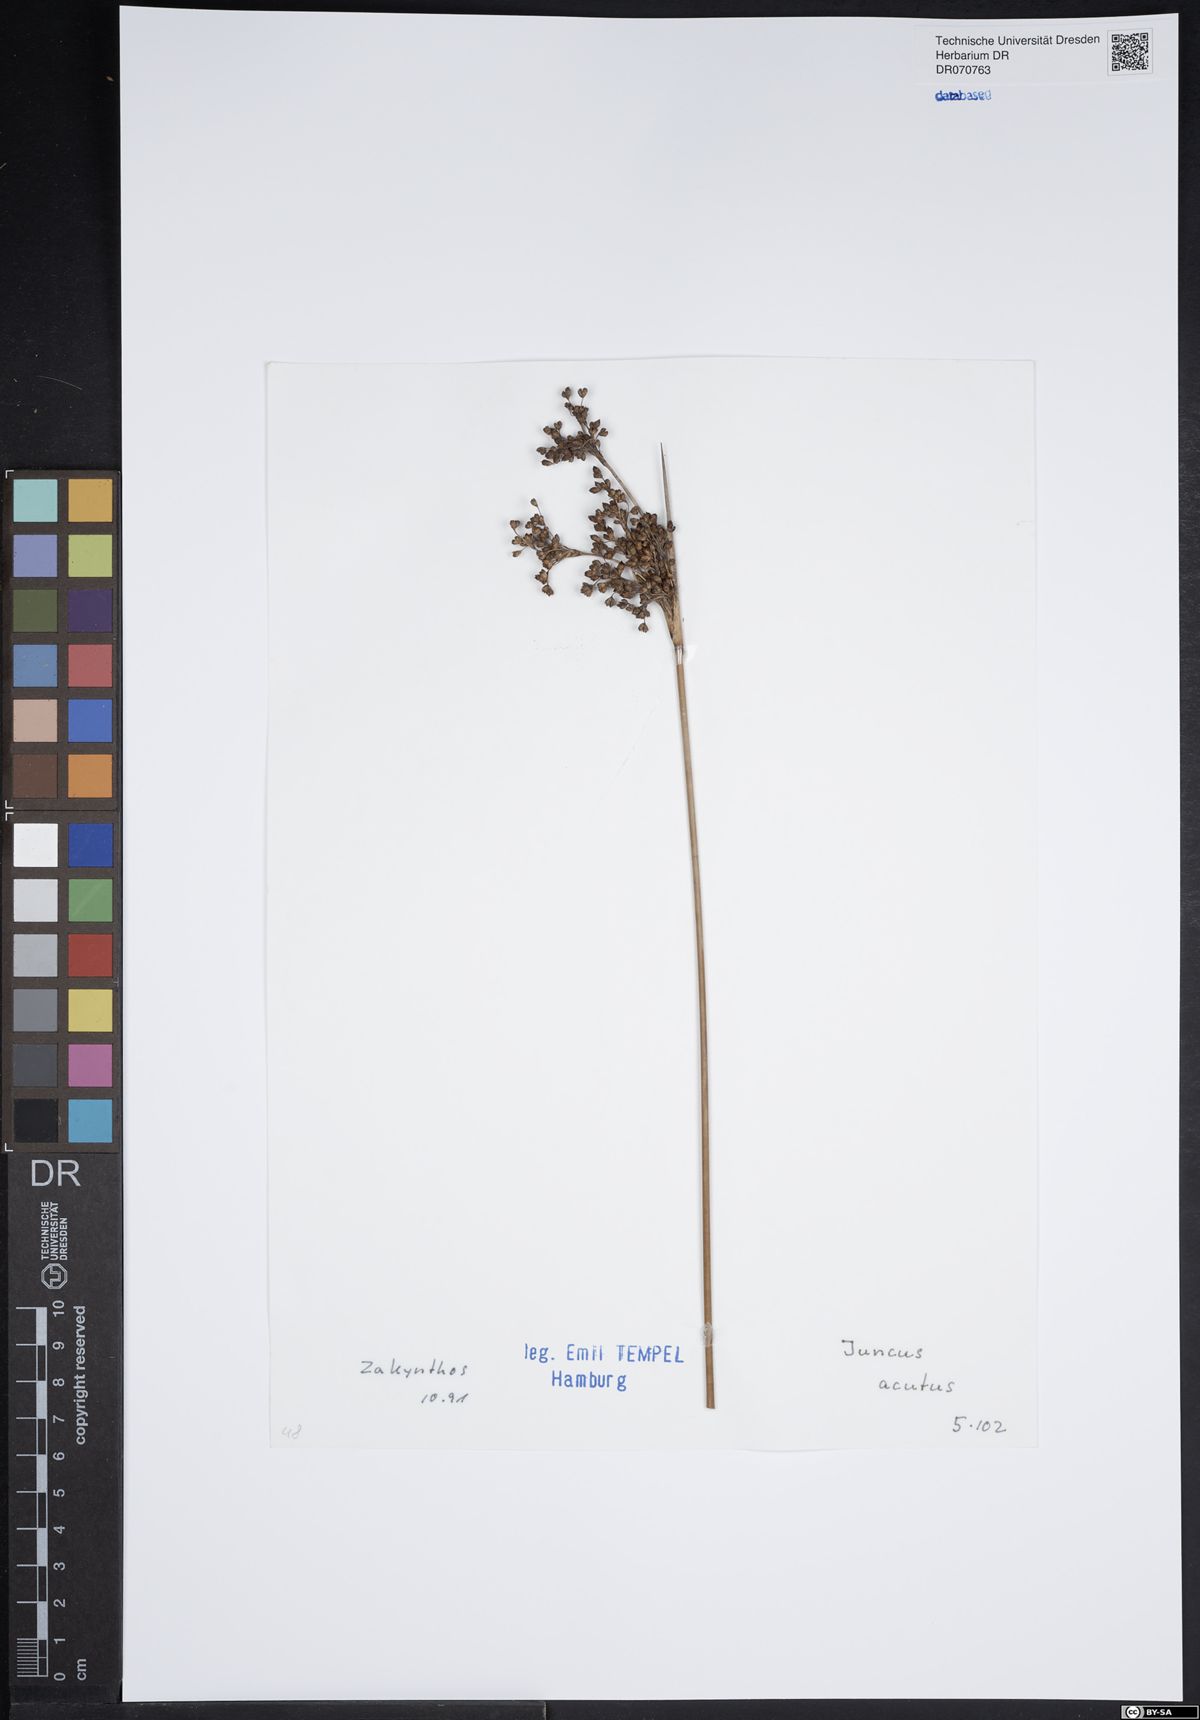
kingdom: Plantae
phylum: Tracheophyta
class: Liliopsida
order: Poales
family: Juncaceae
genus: Juncus
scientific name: Juncus acutus
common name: Sharp rush
